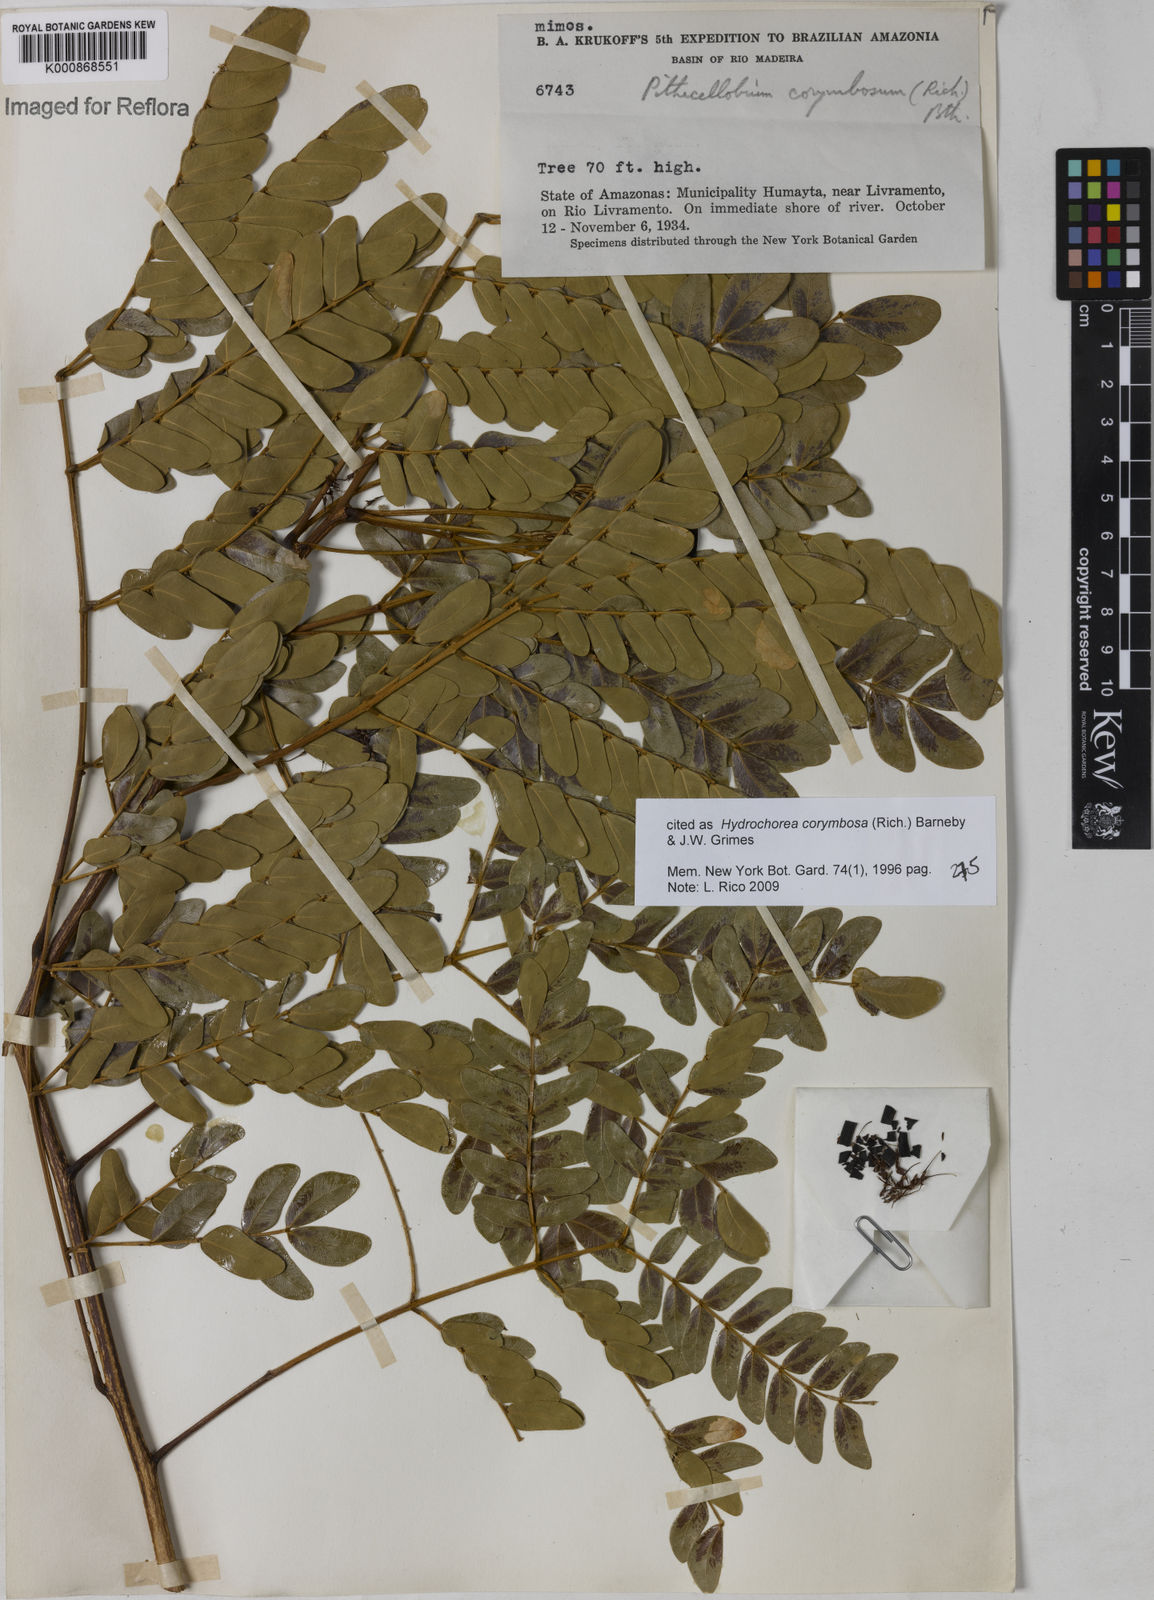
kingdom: Plantae
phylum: Tracheophyta
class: Magnoliopsida
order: Fabales
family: Fabaceae
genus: Hydrochorea
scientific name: Hydrochorea corymbosa
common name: Swamp manariballi
